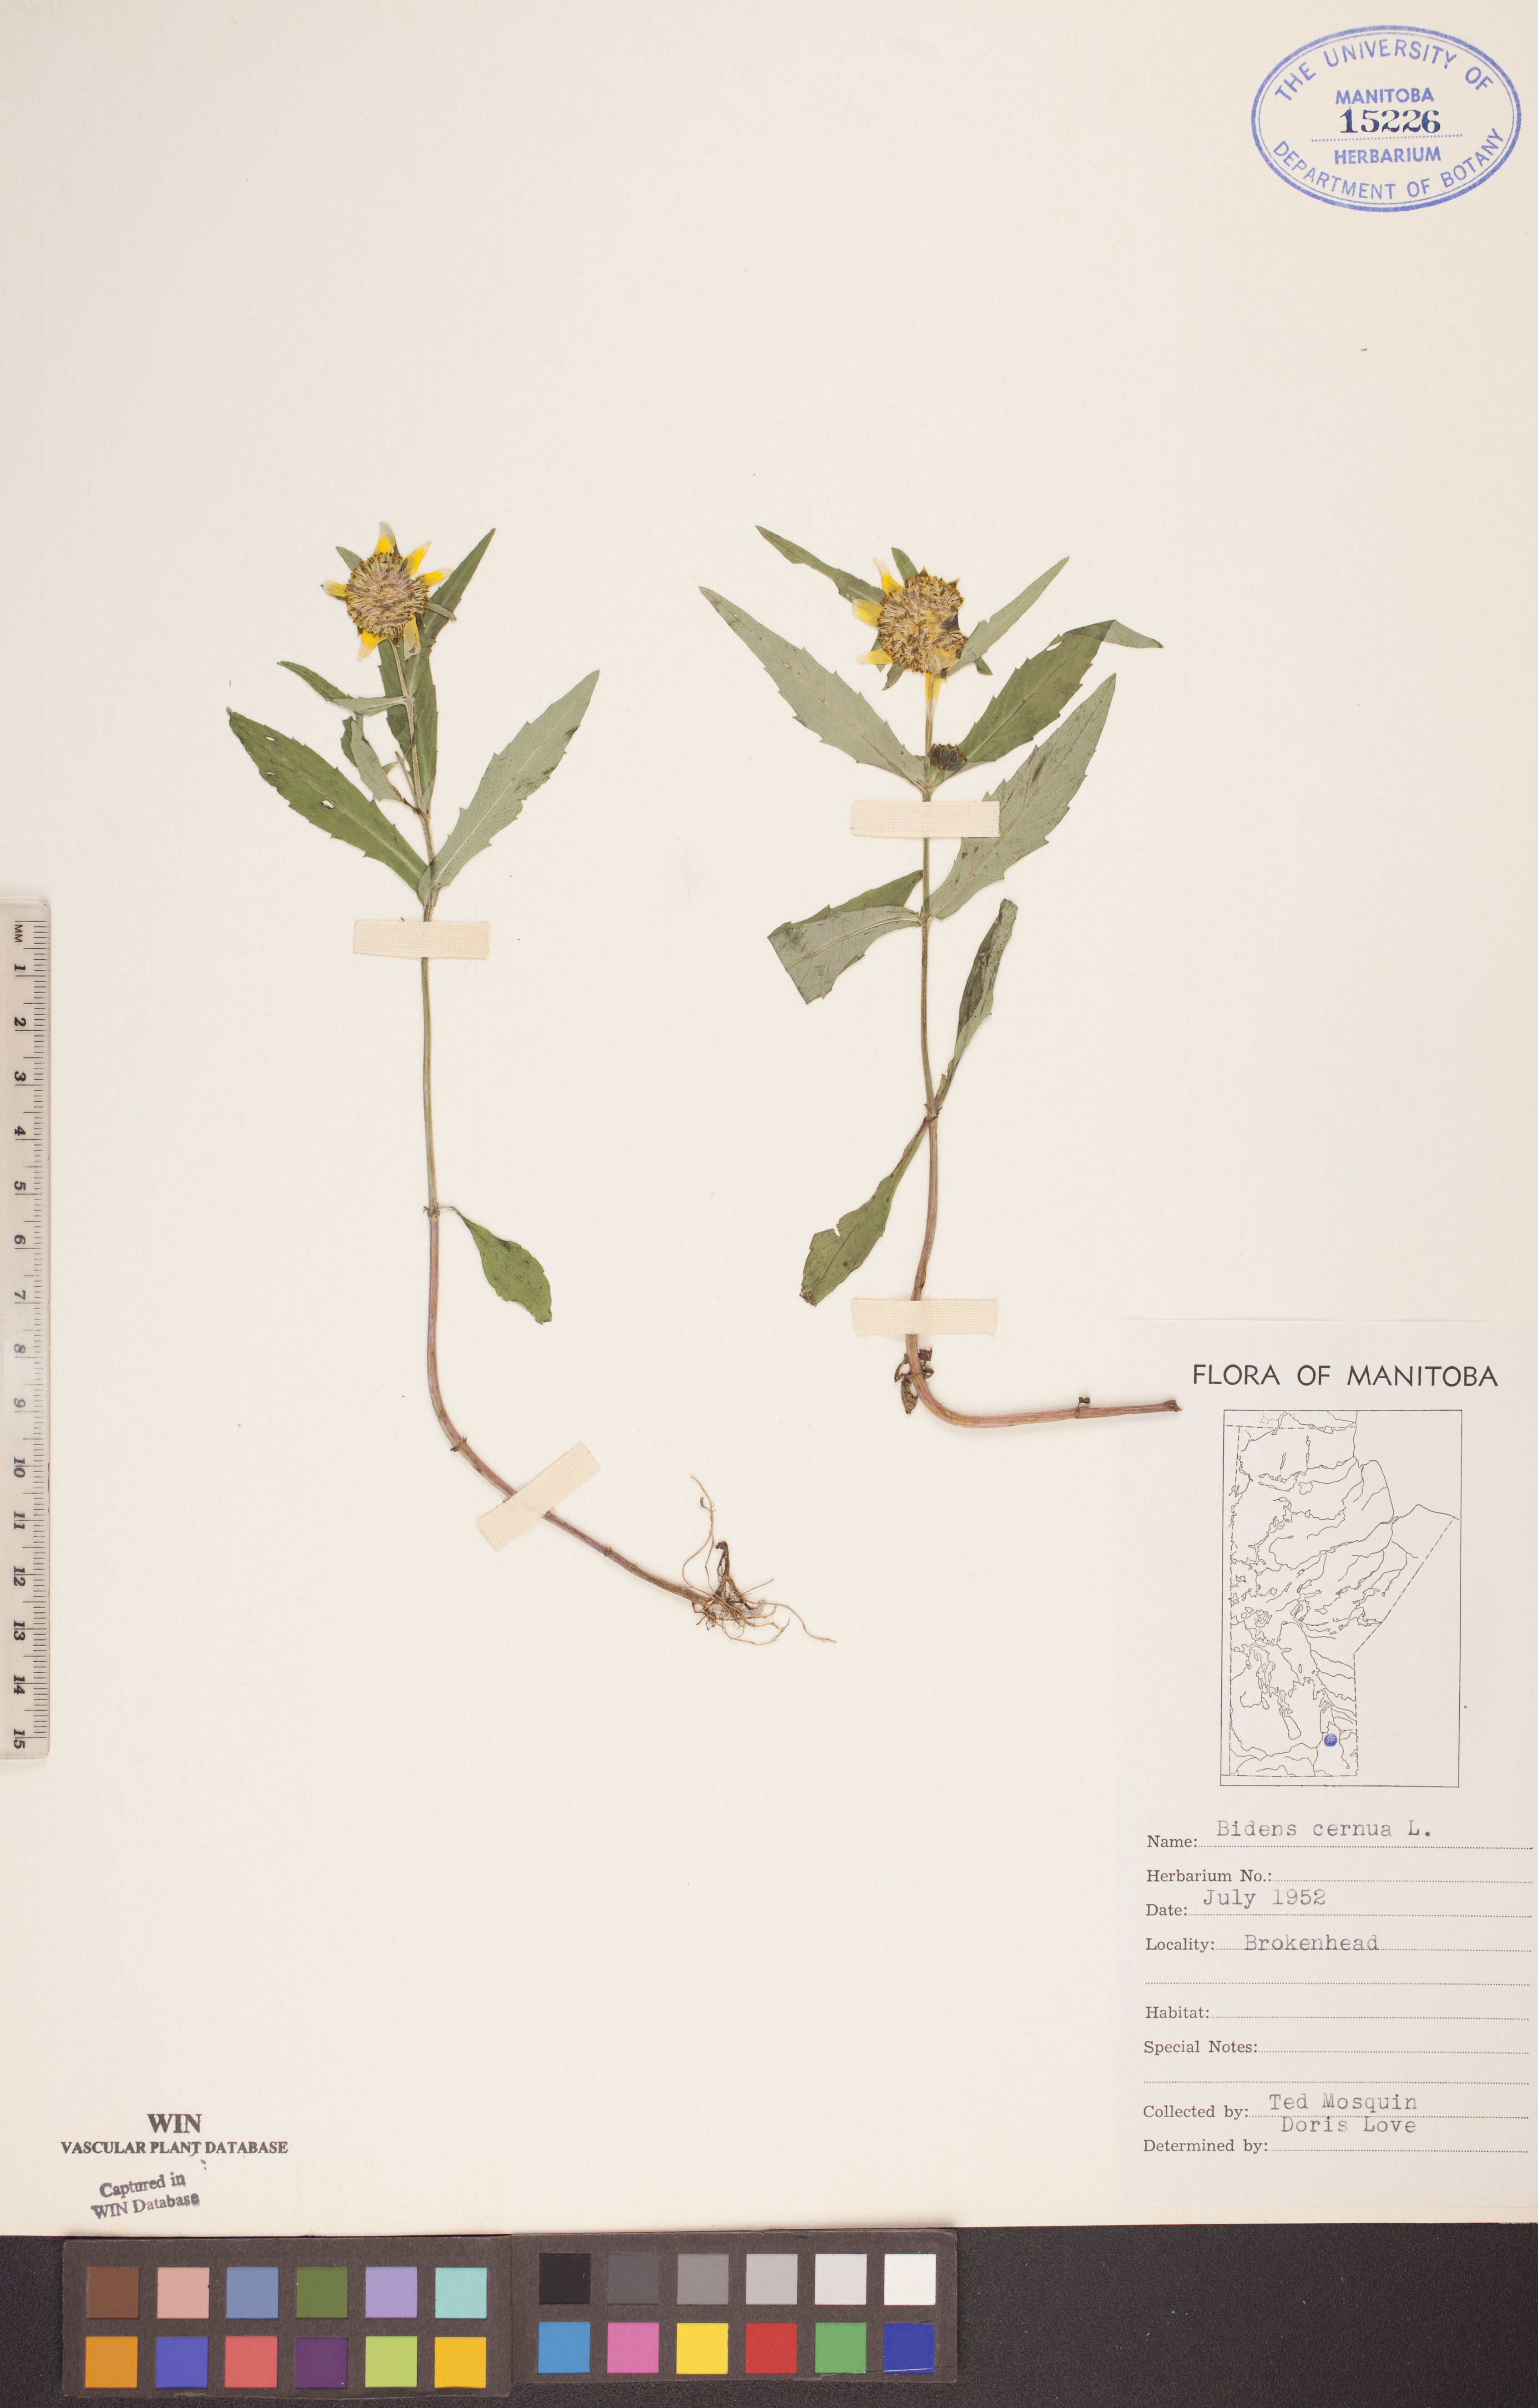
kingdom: Plantae
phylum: Tracheophyta
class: Magnoliopsida
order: Asterales
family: Asteraceae
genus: Bidens
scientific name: Bidens cernua
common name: Nodding bur-marigold
